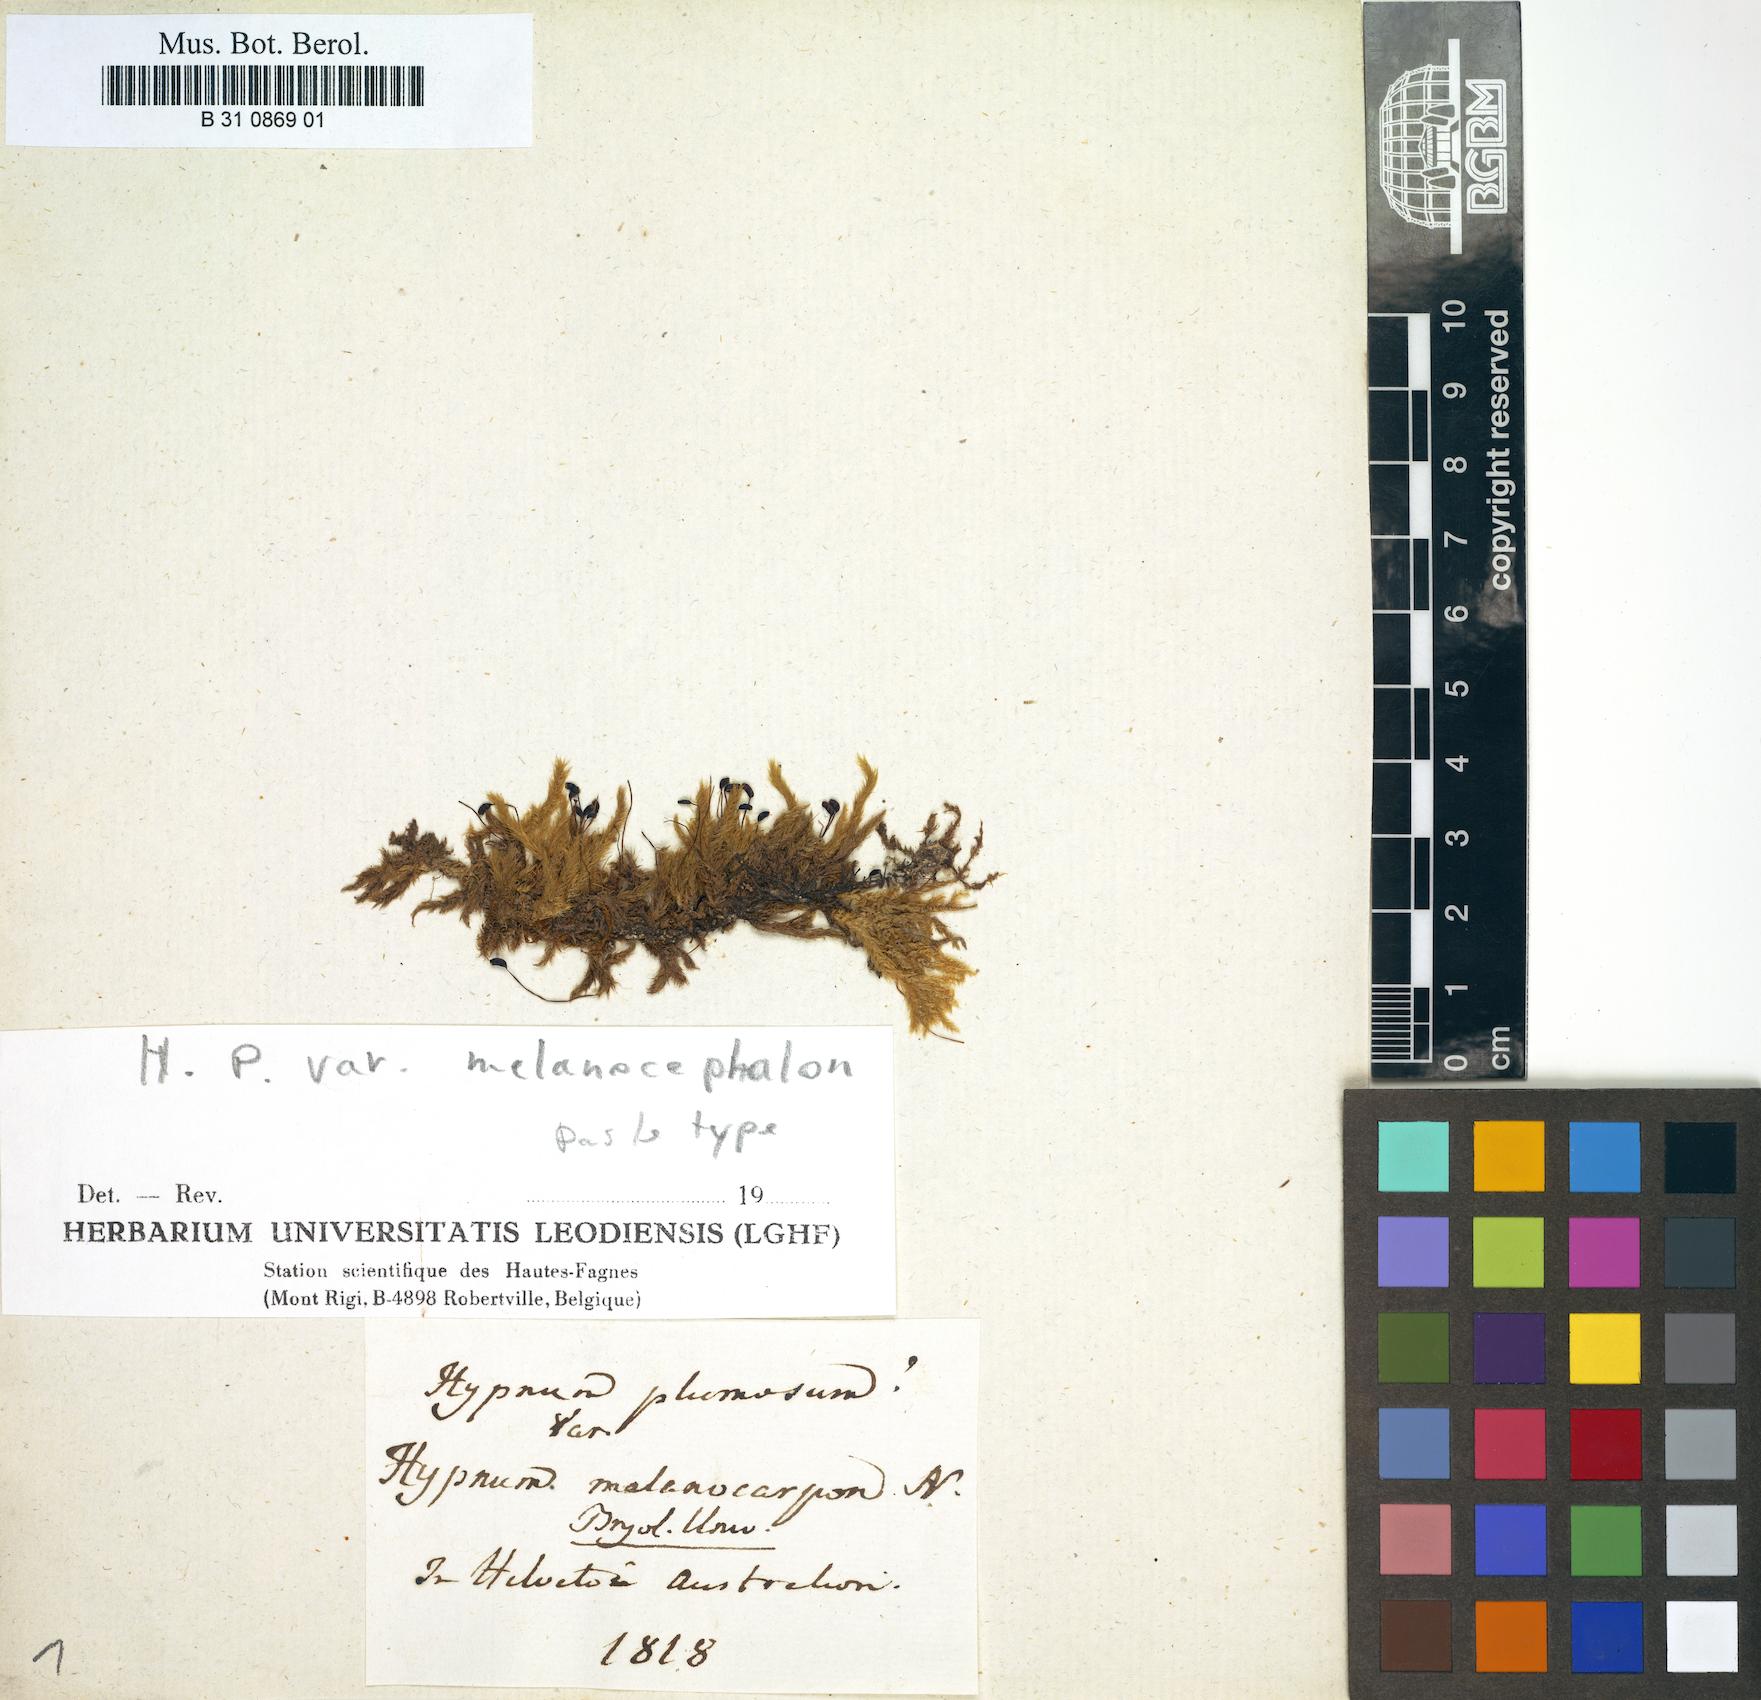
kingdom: Plantae
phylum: Bryophyta
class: Bryopsida
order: Hypnales
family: Brachytheciaceae
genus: Sciuro-hypnum
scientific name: Sciuro-hypnum plumosum
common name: Rusty feather-moss
